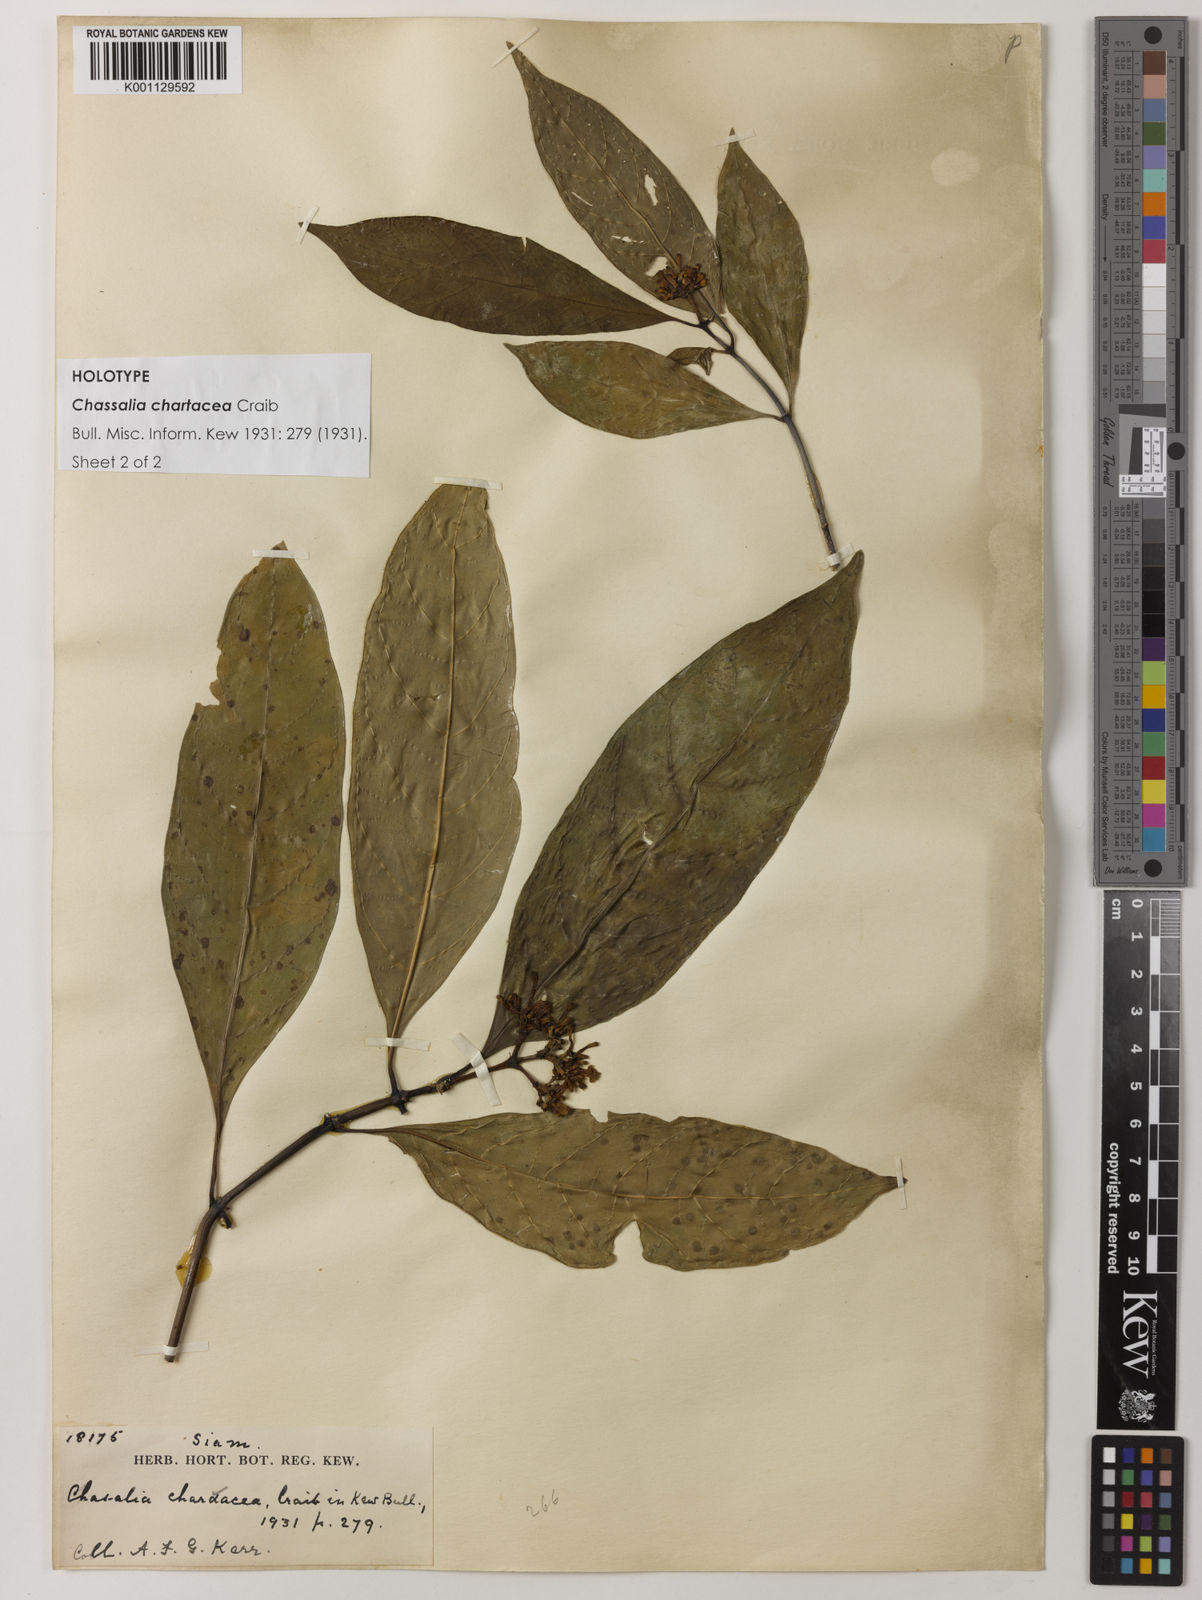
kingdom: Plantae
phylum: Tracheophyta
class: Magnoliopsida
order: Gentianales
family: Rubiaceae
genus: Chassalia
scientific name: Chassalia curviflora
